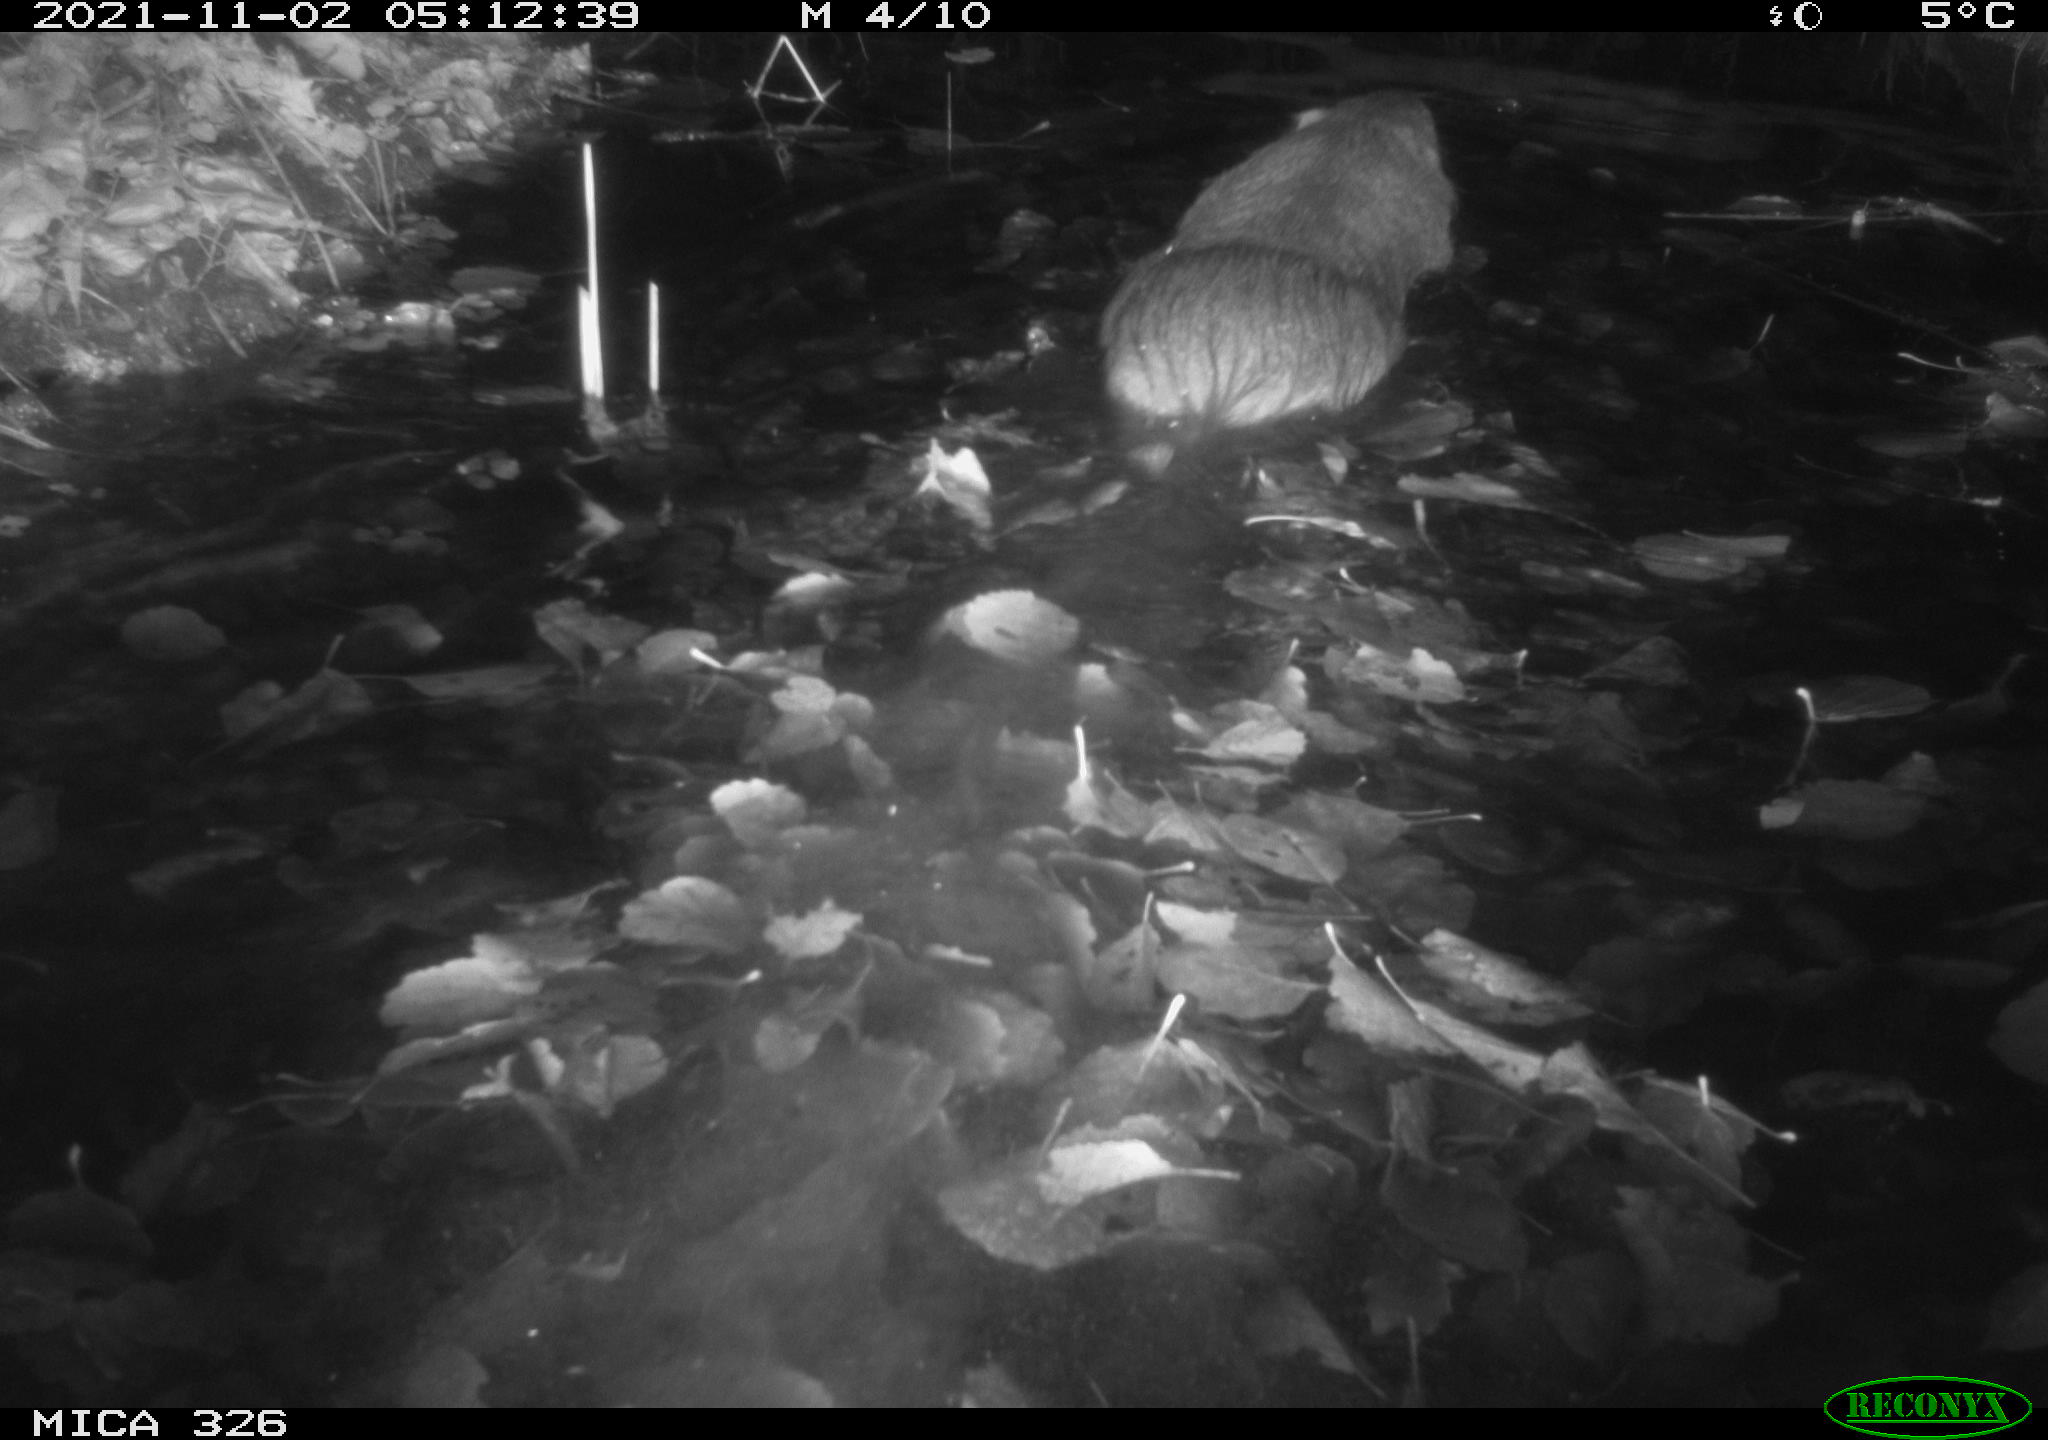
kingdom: Animalia
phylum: Chordata
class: Mammalia
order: Rodentia
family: Myocastoridae
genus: Myocastor
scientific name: Myocastor coypus
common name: Coypu
